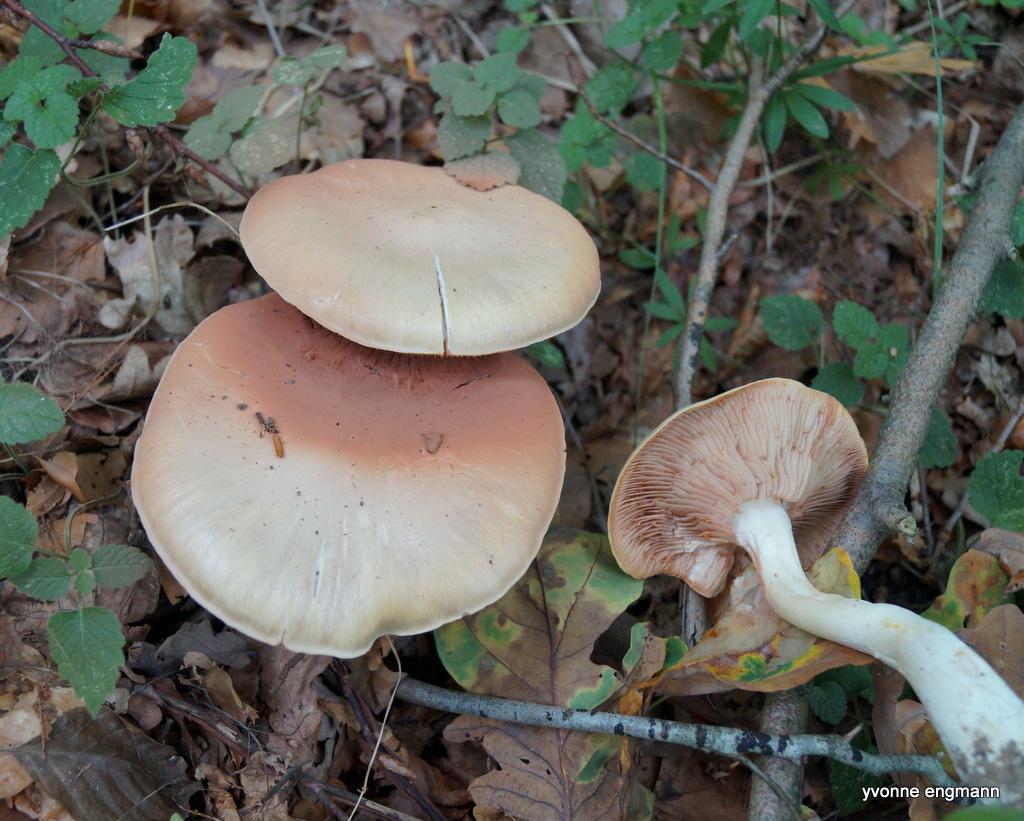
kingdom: Fungi
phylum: Basidiomycota
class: Agaricomycetes
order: Agaricales
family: Entolomataceae
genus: Entoloma
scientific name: Entoloma
